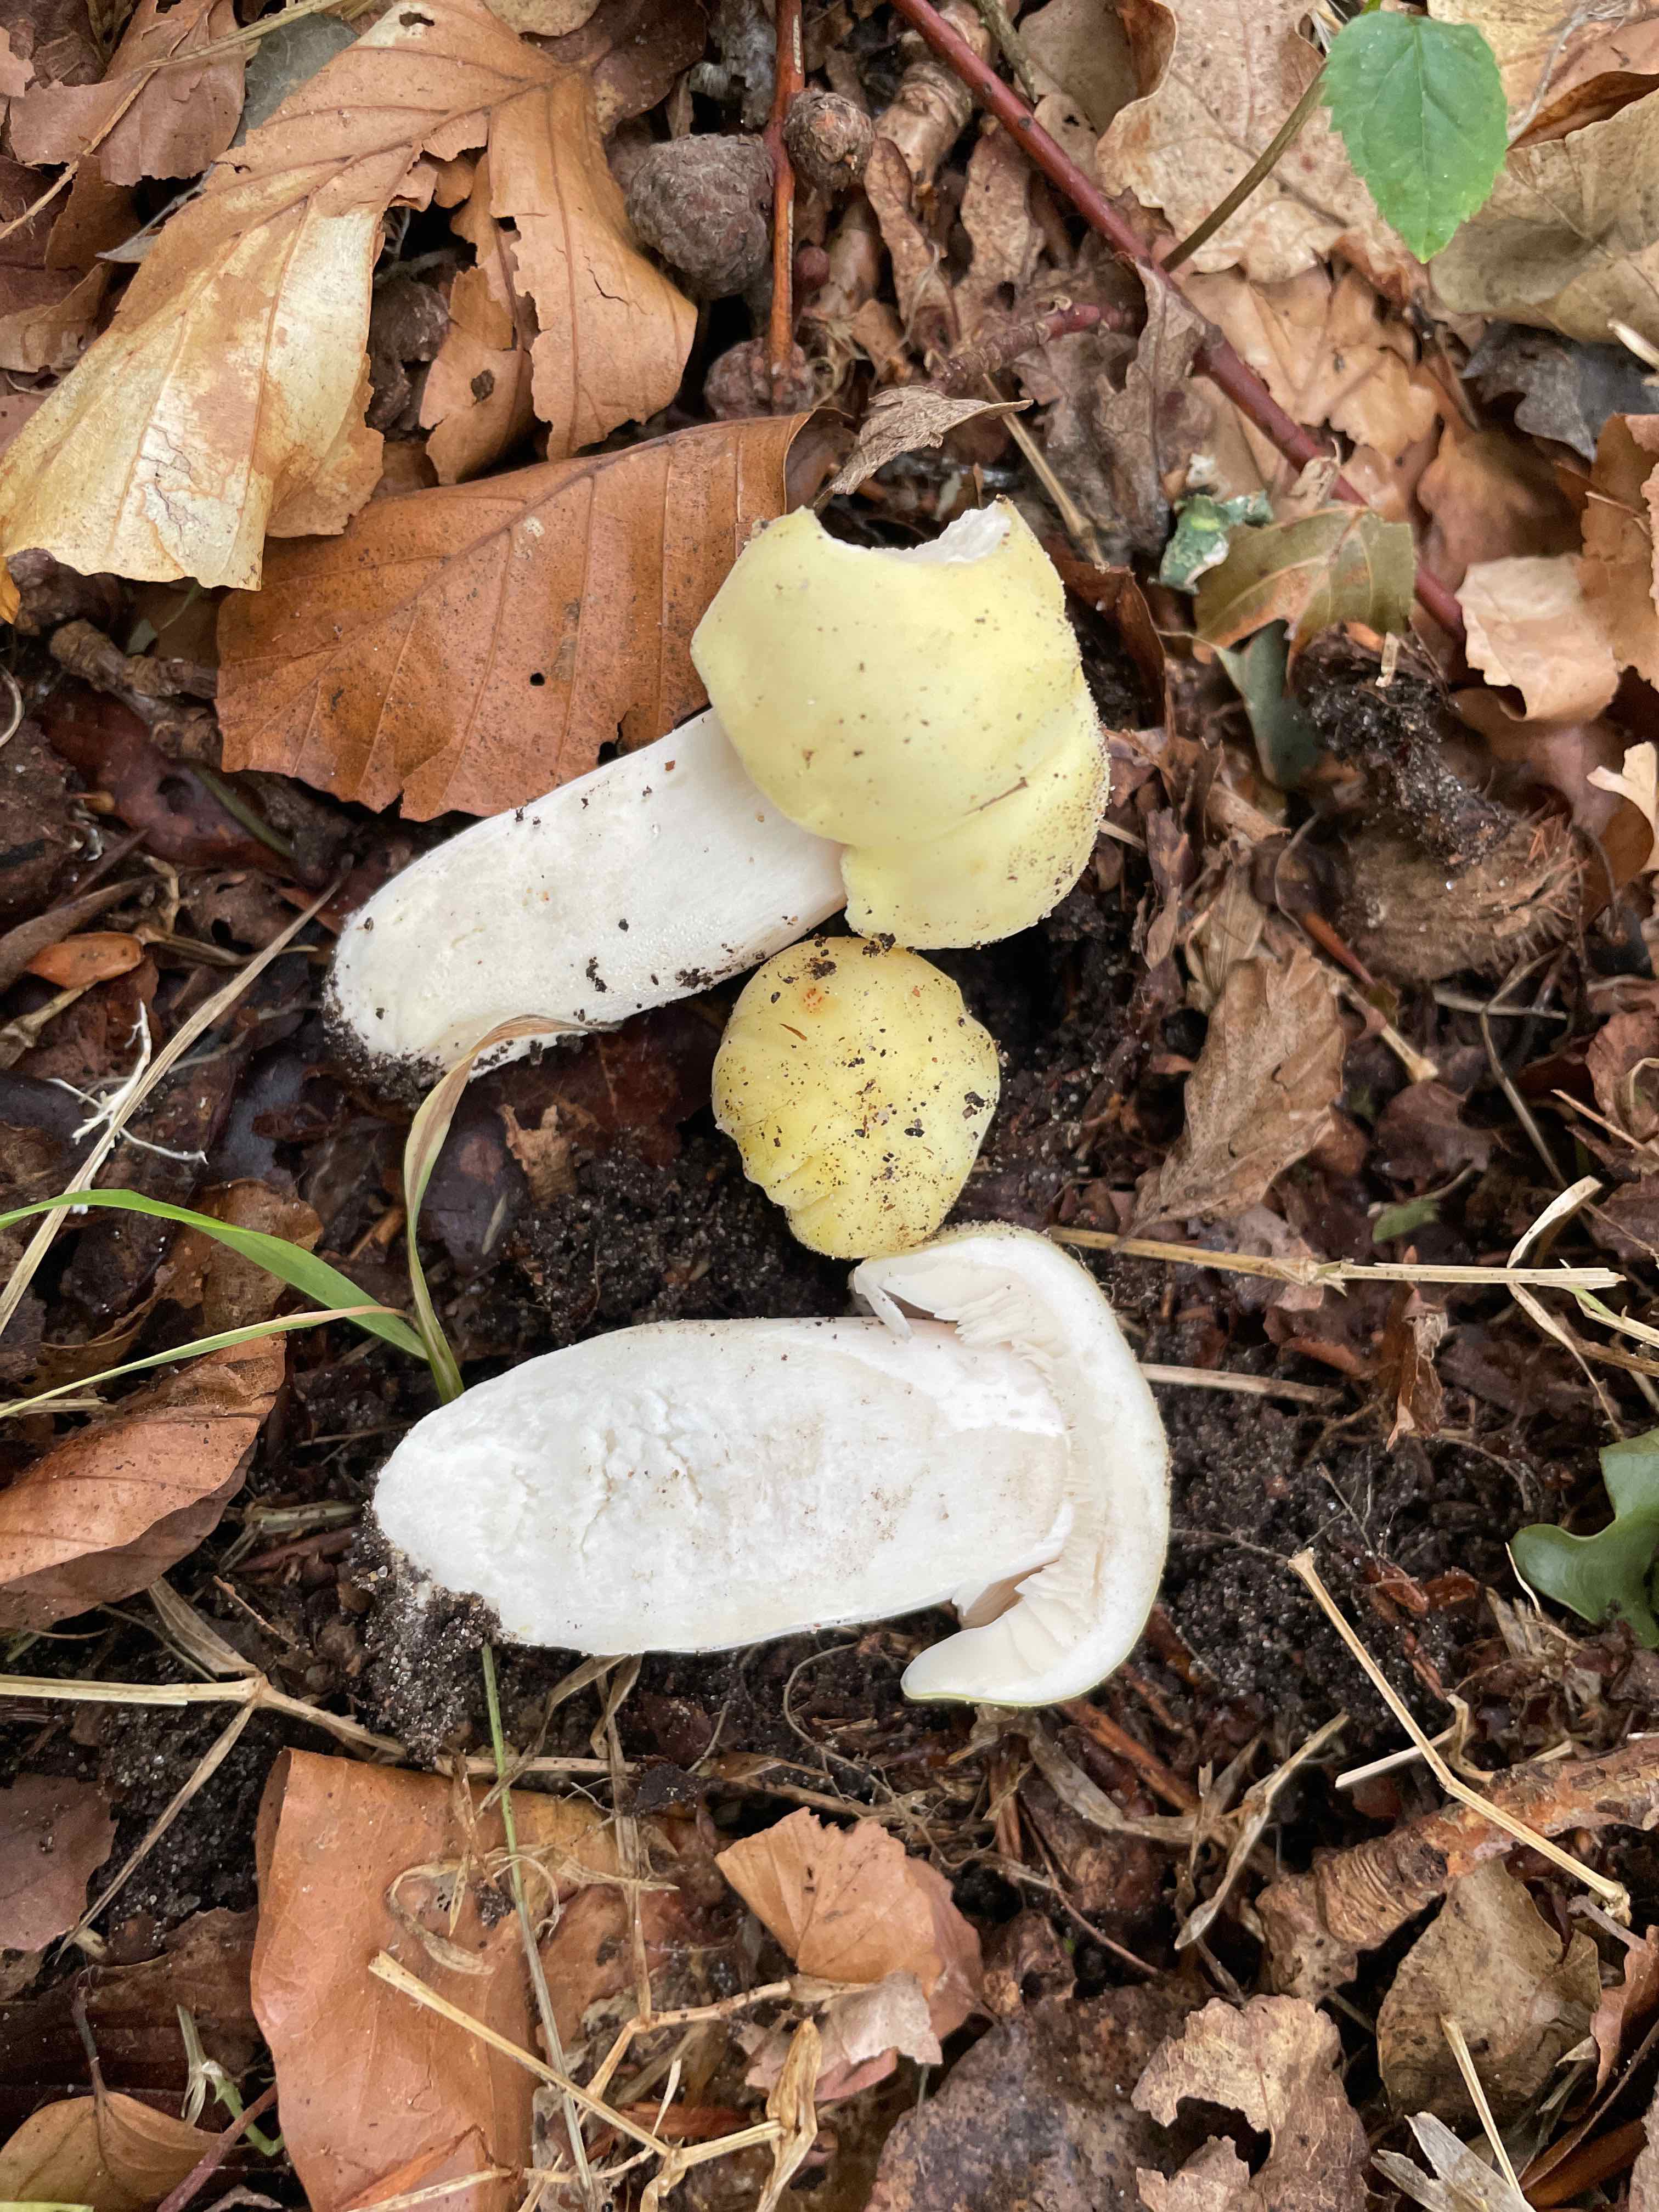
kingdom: Fungi
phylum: Basidiomycota
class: Agaricomycetes
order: Russulales
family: Russulaceae
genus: Russula
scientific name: Russula violeipes
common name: ferskengul skørhat
